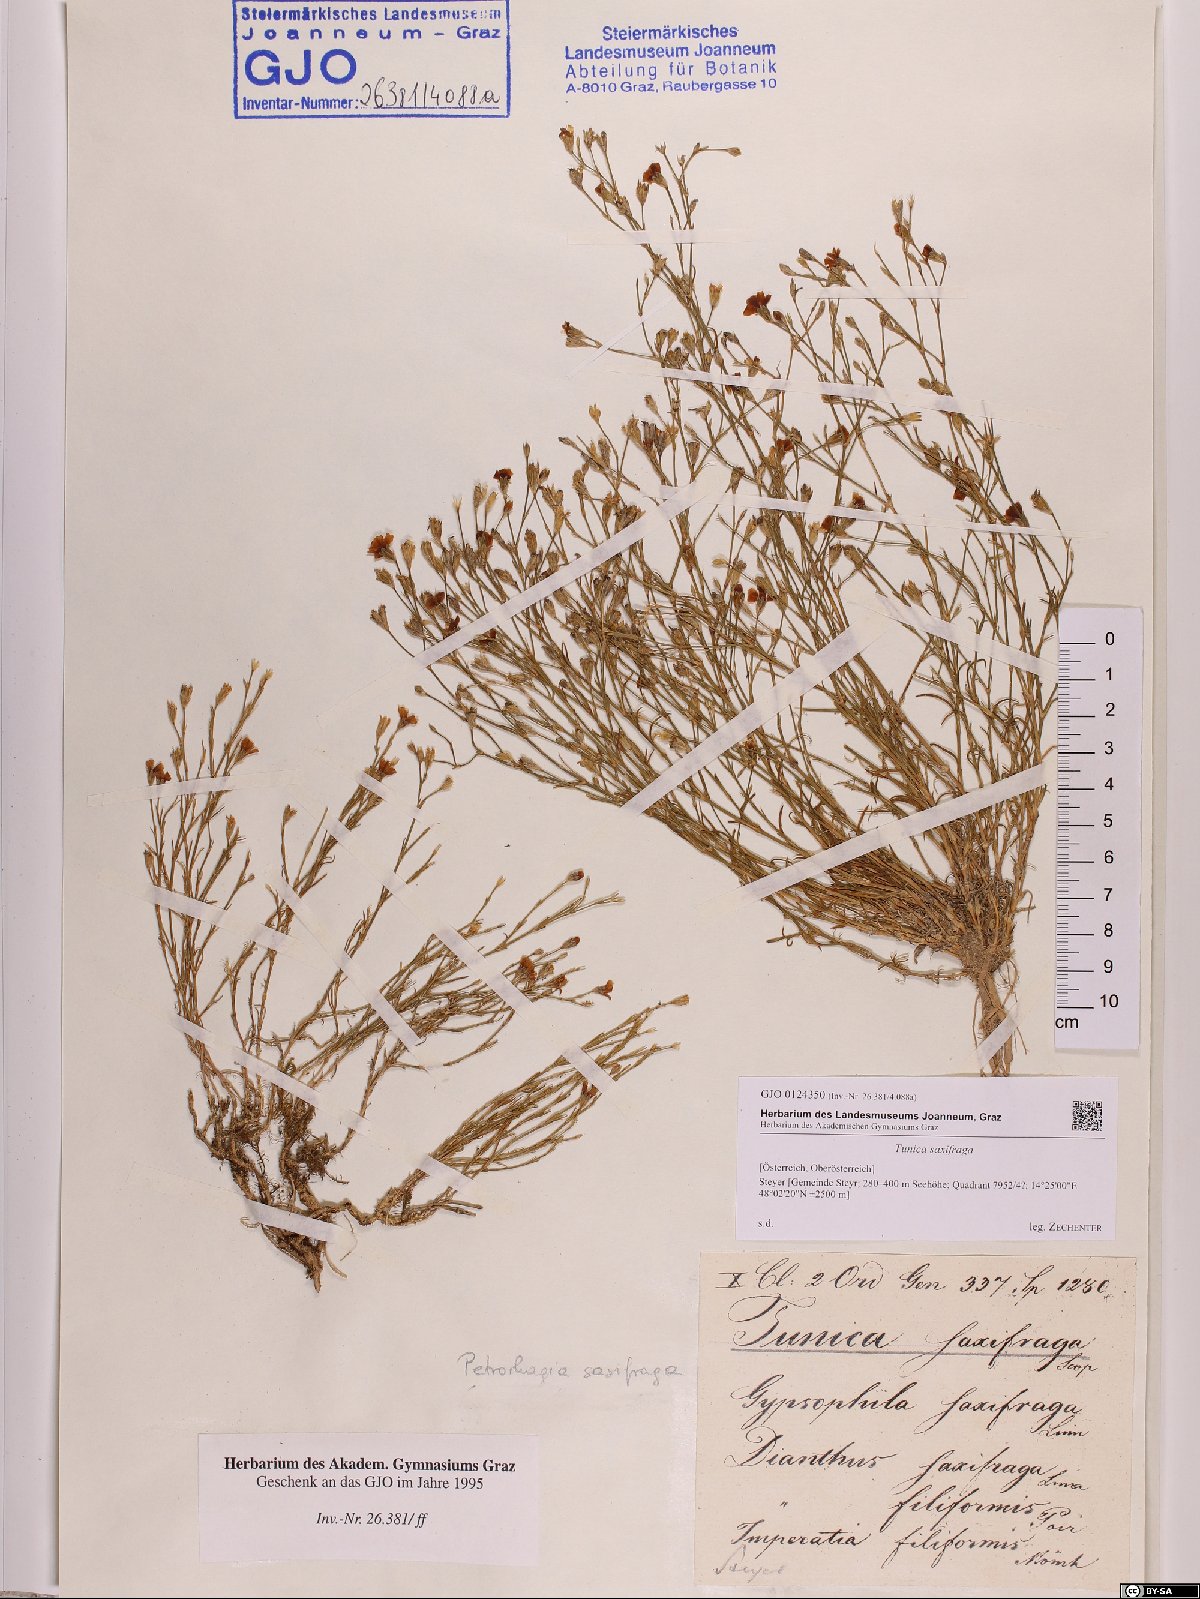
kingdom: Plantae
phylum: Tracheophyta
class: Magnoliopsida
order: Caryophyllales
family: Caryophyllaceae
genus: Petrorhagia
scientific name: Petrorhagia saxifraga
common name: Tunicflower
